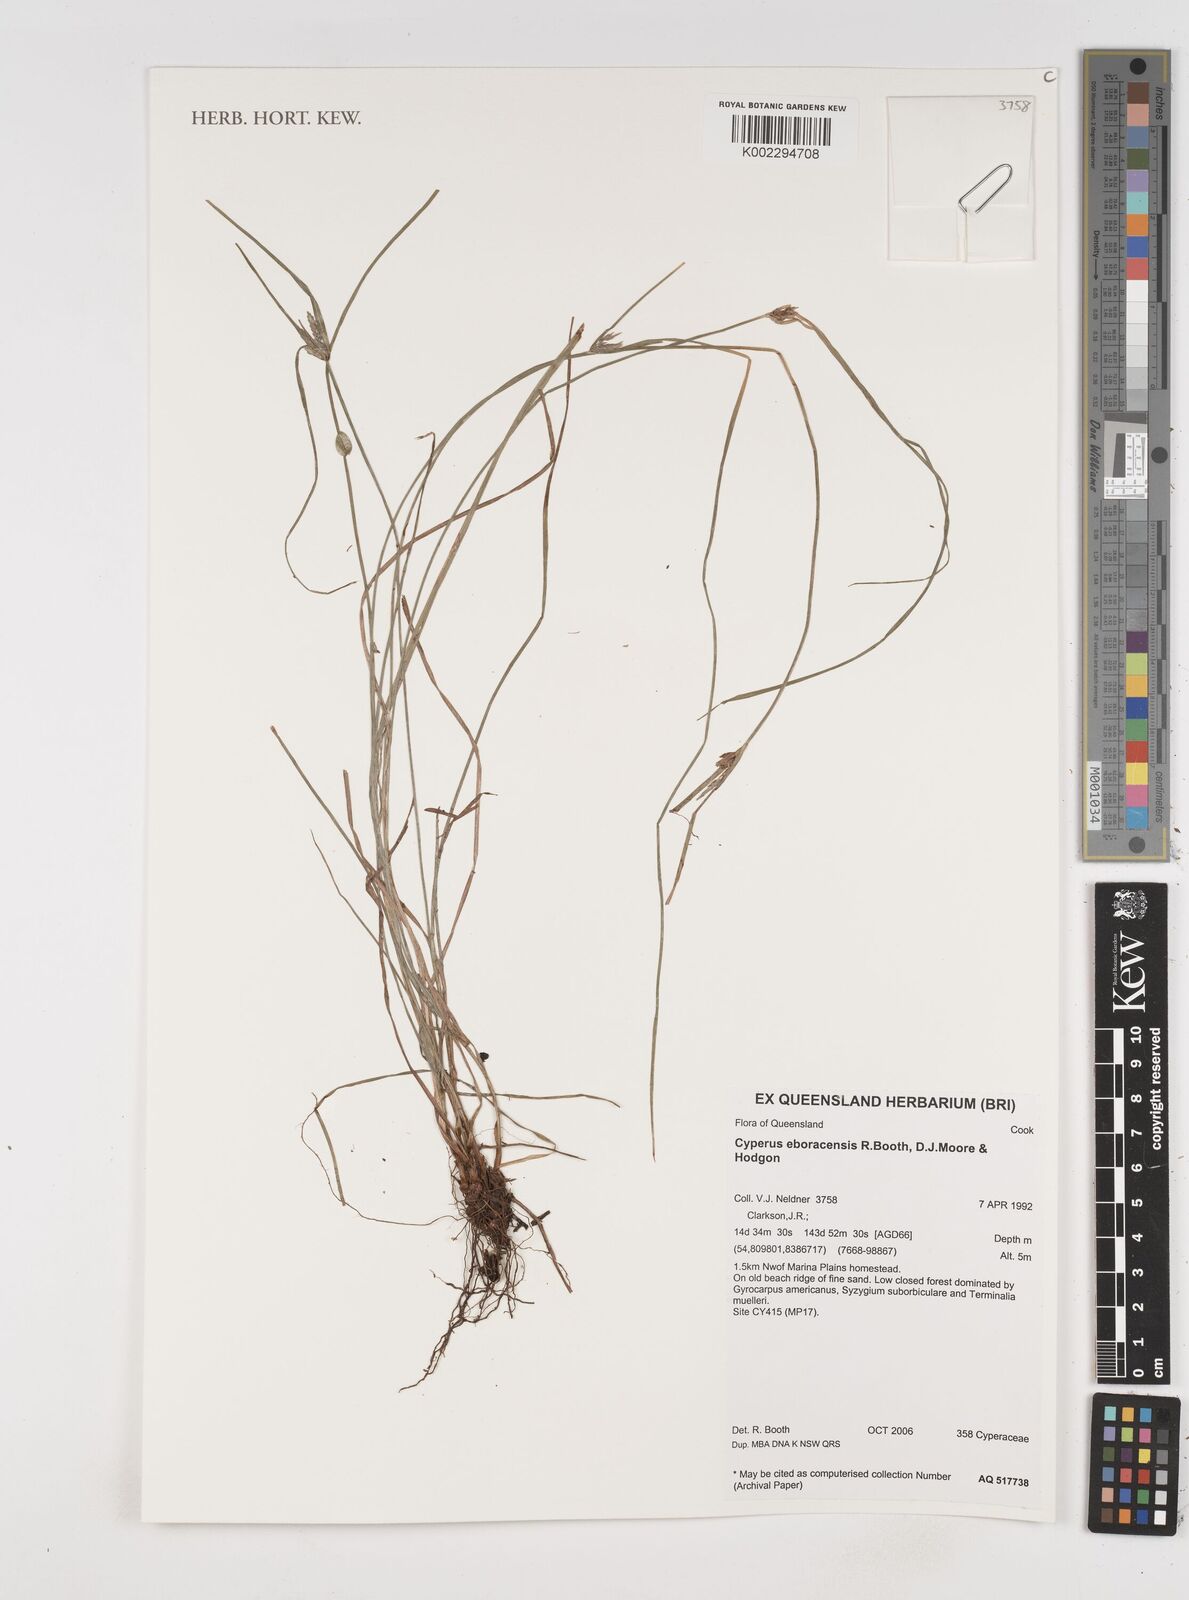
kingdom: Plantae
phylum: Tracheophyta
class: Liliopsida
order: Poales
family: Cyperaceae
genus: Cyperus
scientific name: Cyperus eboracensis
